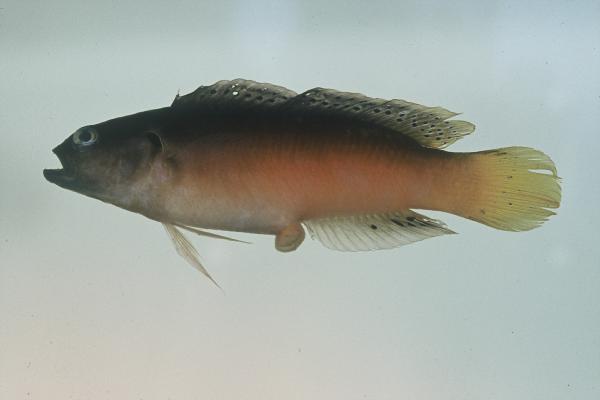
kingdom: Animalia
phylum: Chordata
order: Perciformes
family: Pseudochromidae
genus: Pseudochromis
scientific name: Pseudochromis melas
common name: Dark dottyback
